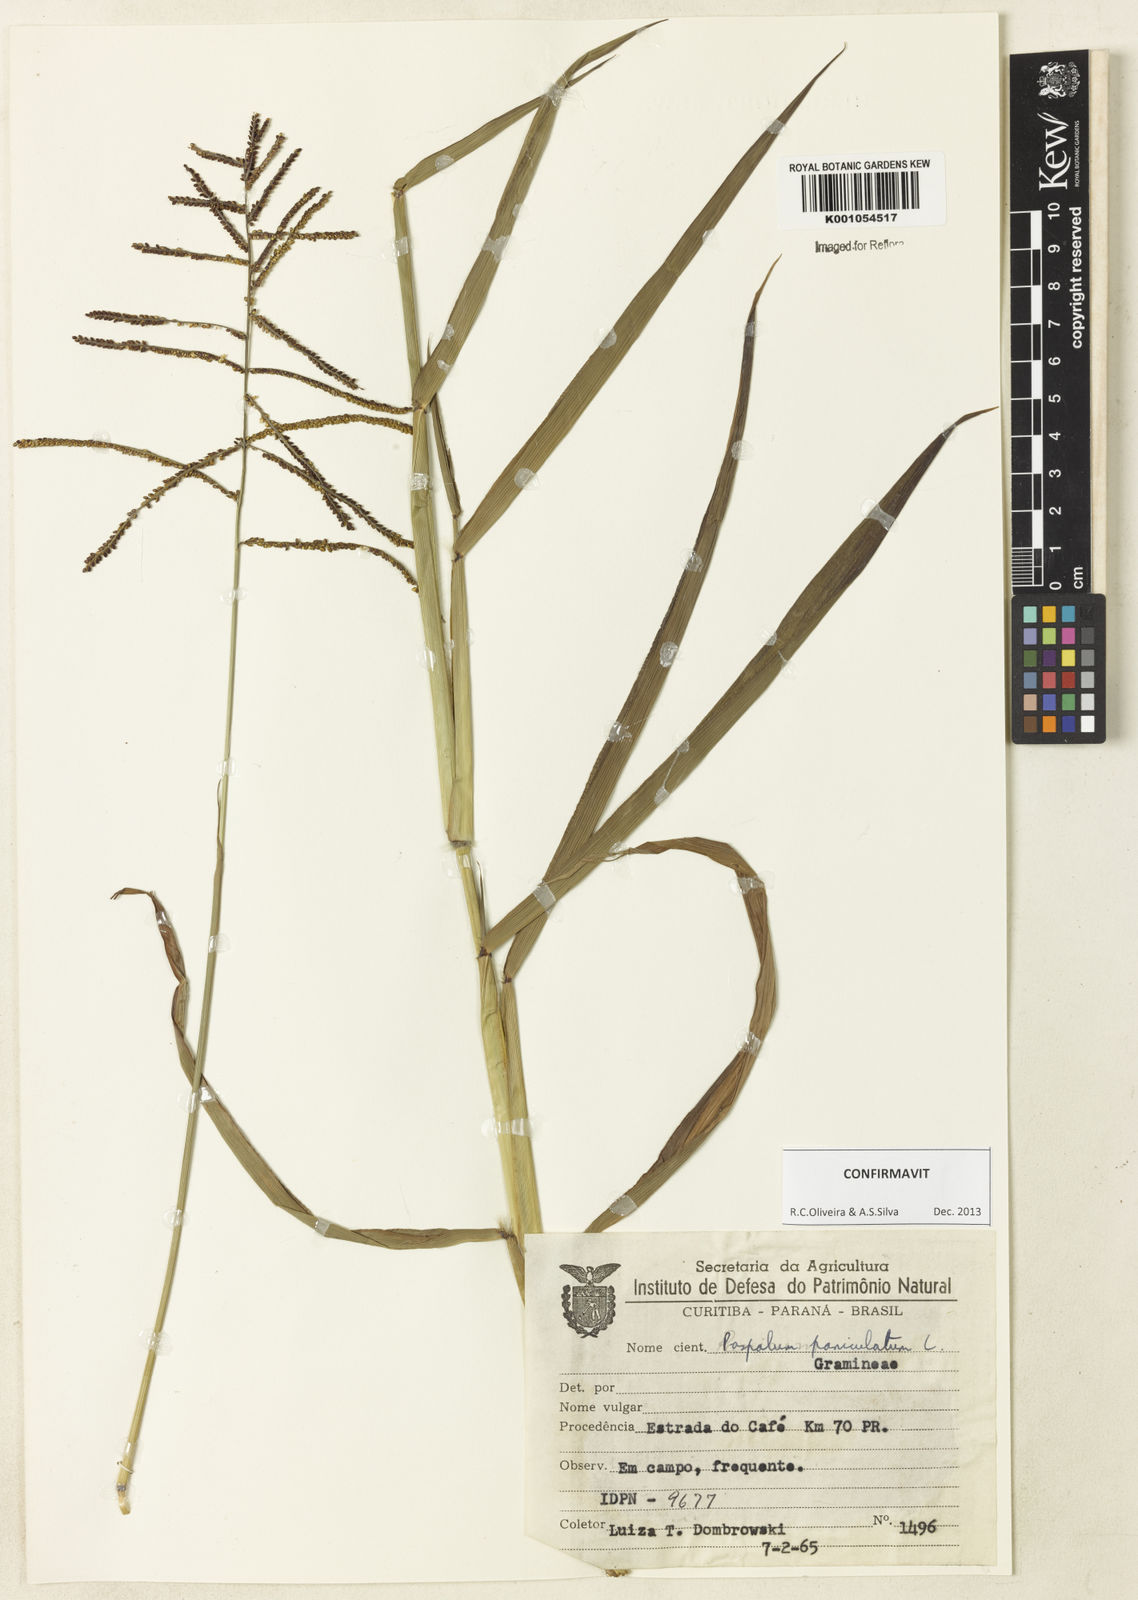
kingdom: Plantae
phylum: Tracheophyta
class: Liliopsida
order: Poales
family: Poaceae
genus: Paspalum
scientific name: Paspalum paniculatum
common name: Arrocillo
